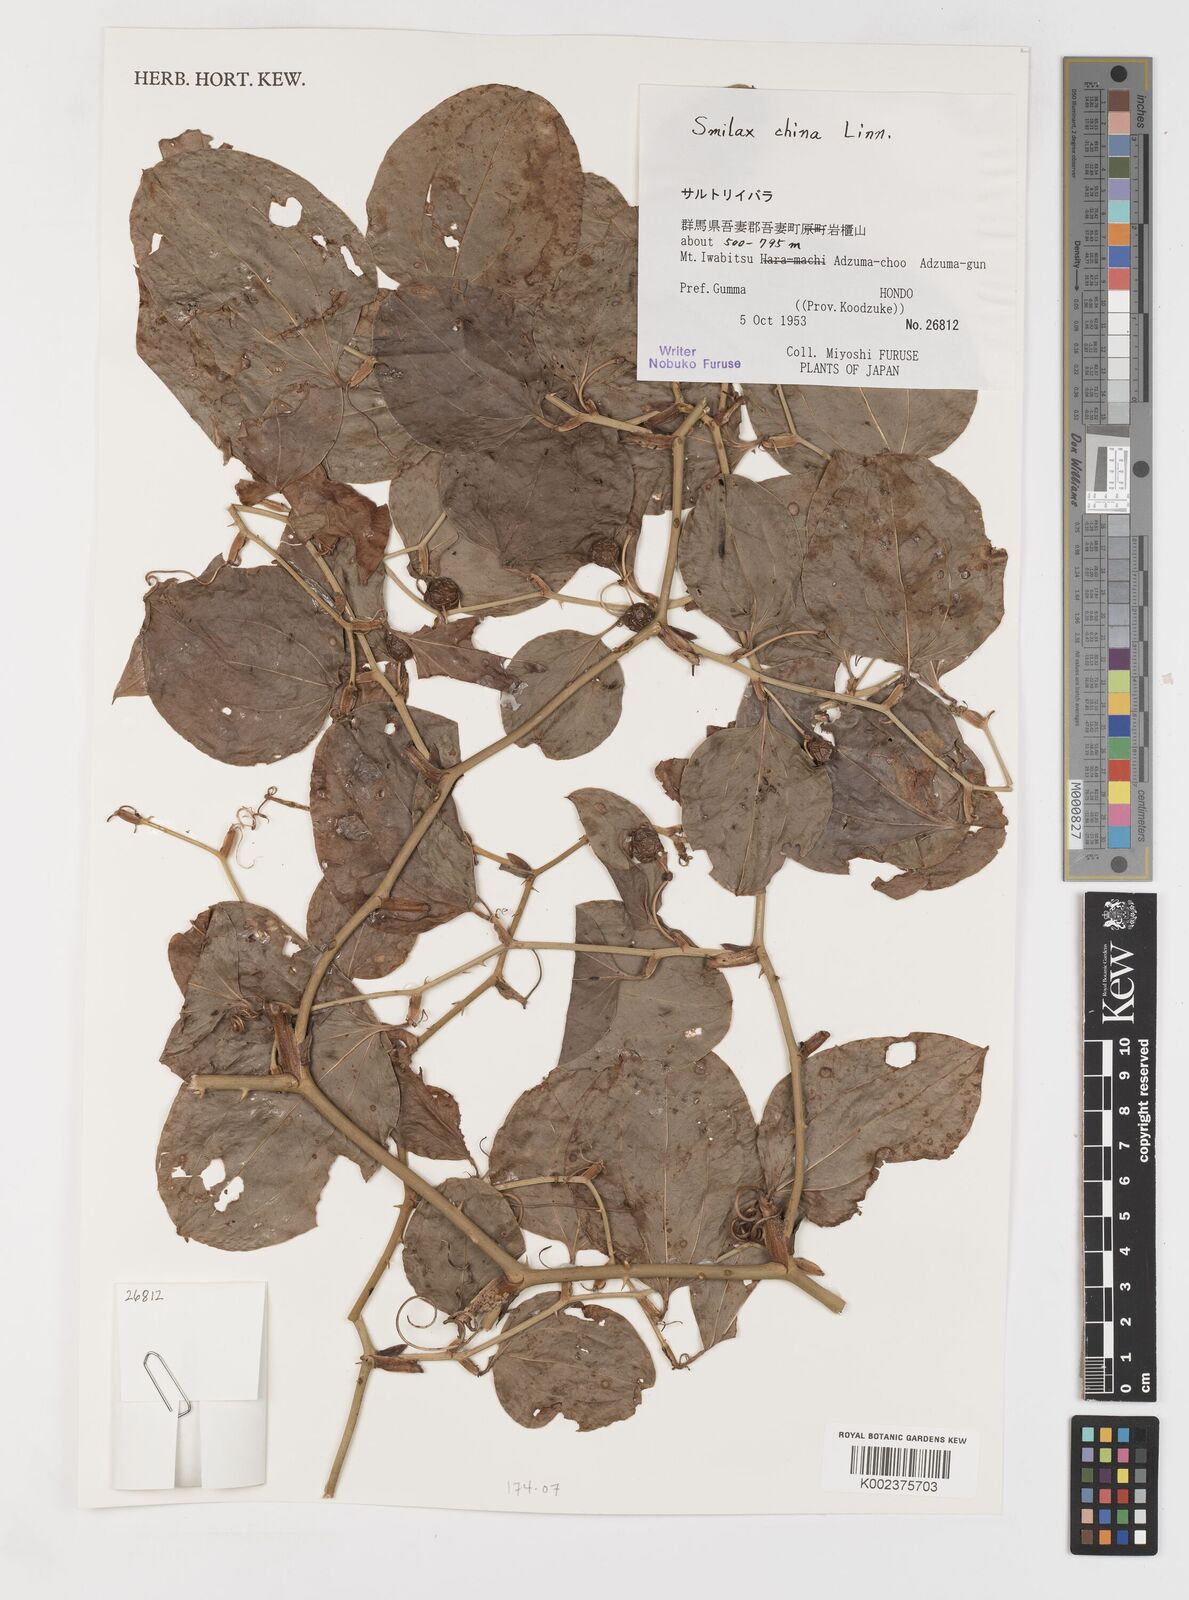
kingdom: Plantae
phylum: Tracheophyta
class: Liliopsida
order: Liliales
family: Smilacaceae
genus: Smilax
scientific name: Smilax china
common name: Chinaroot
